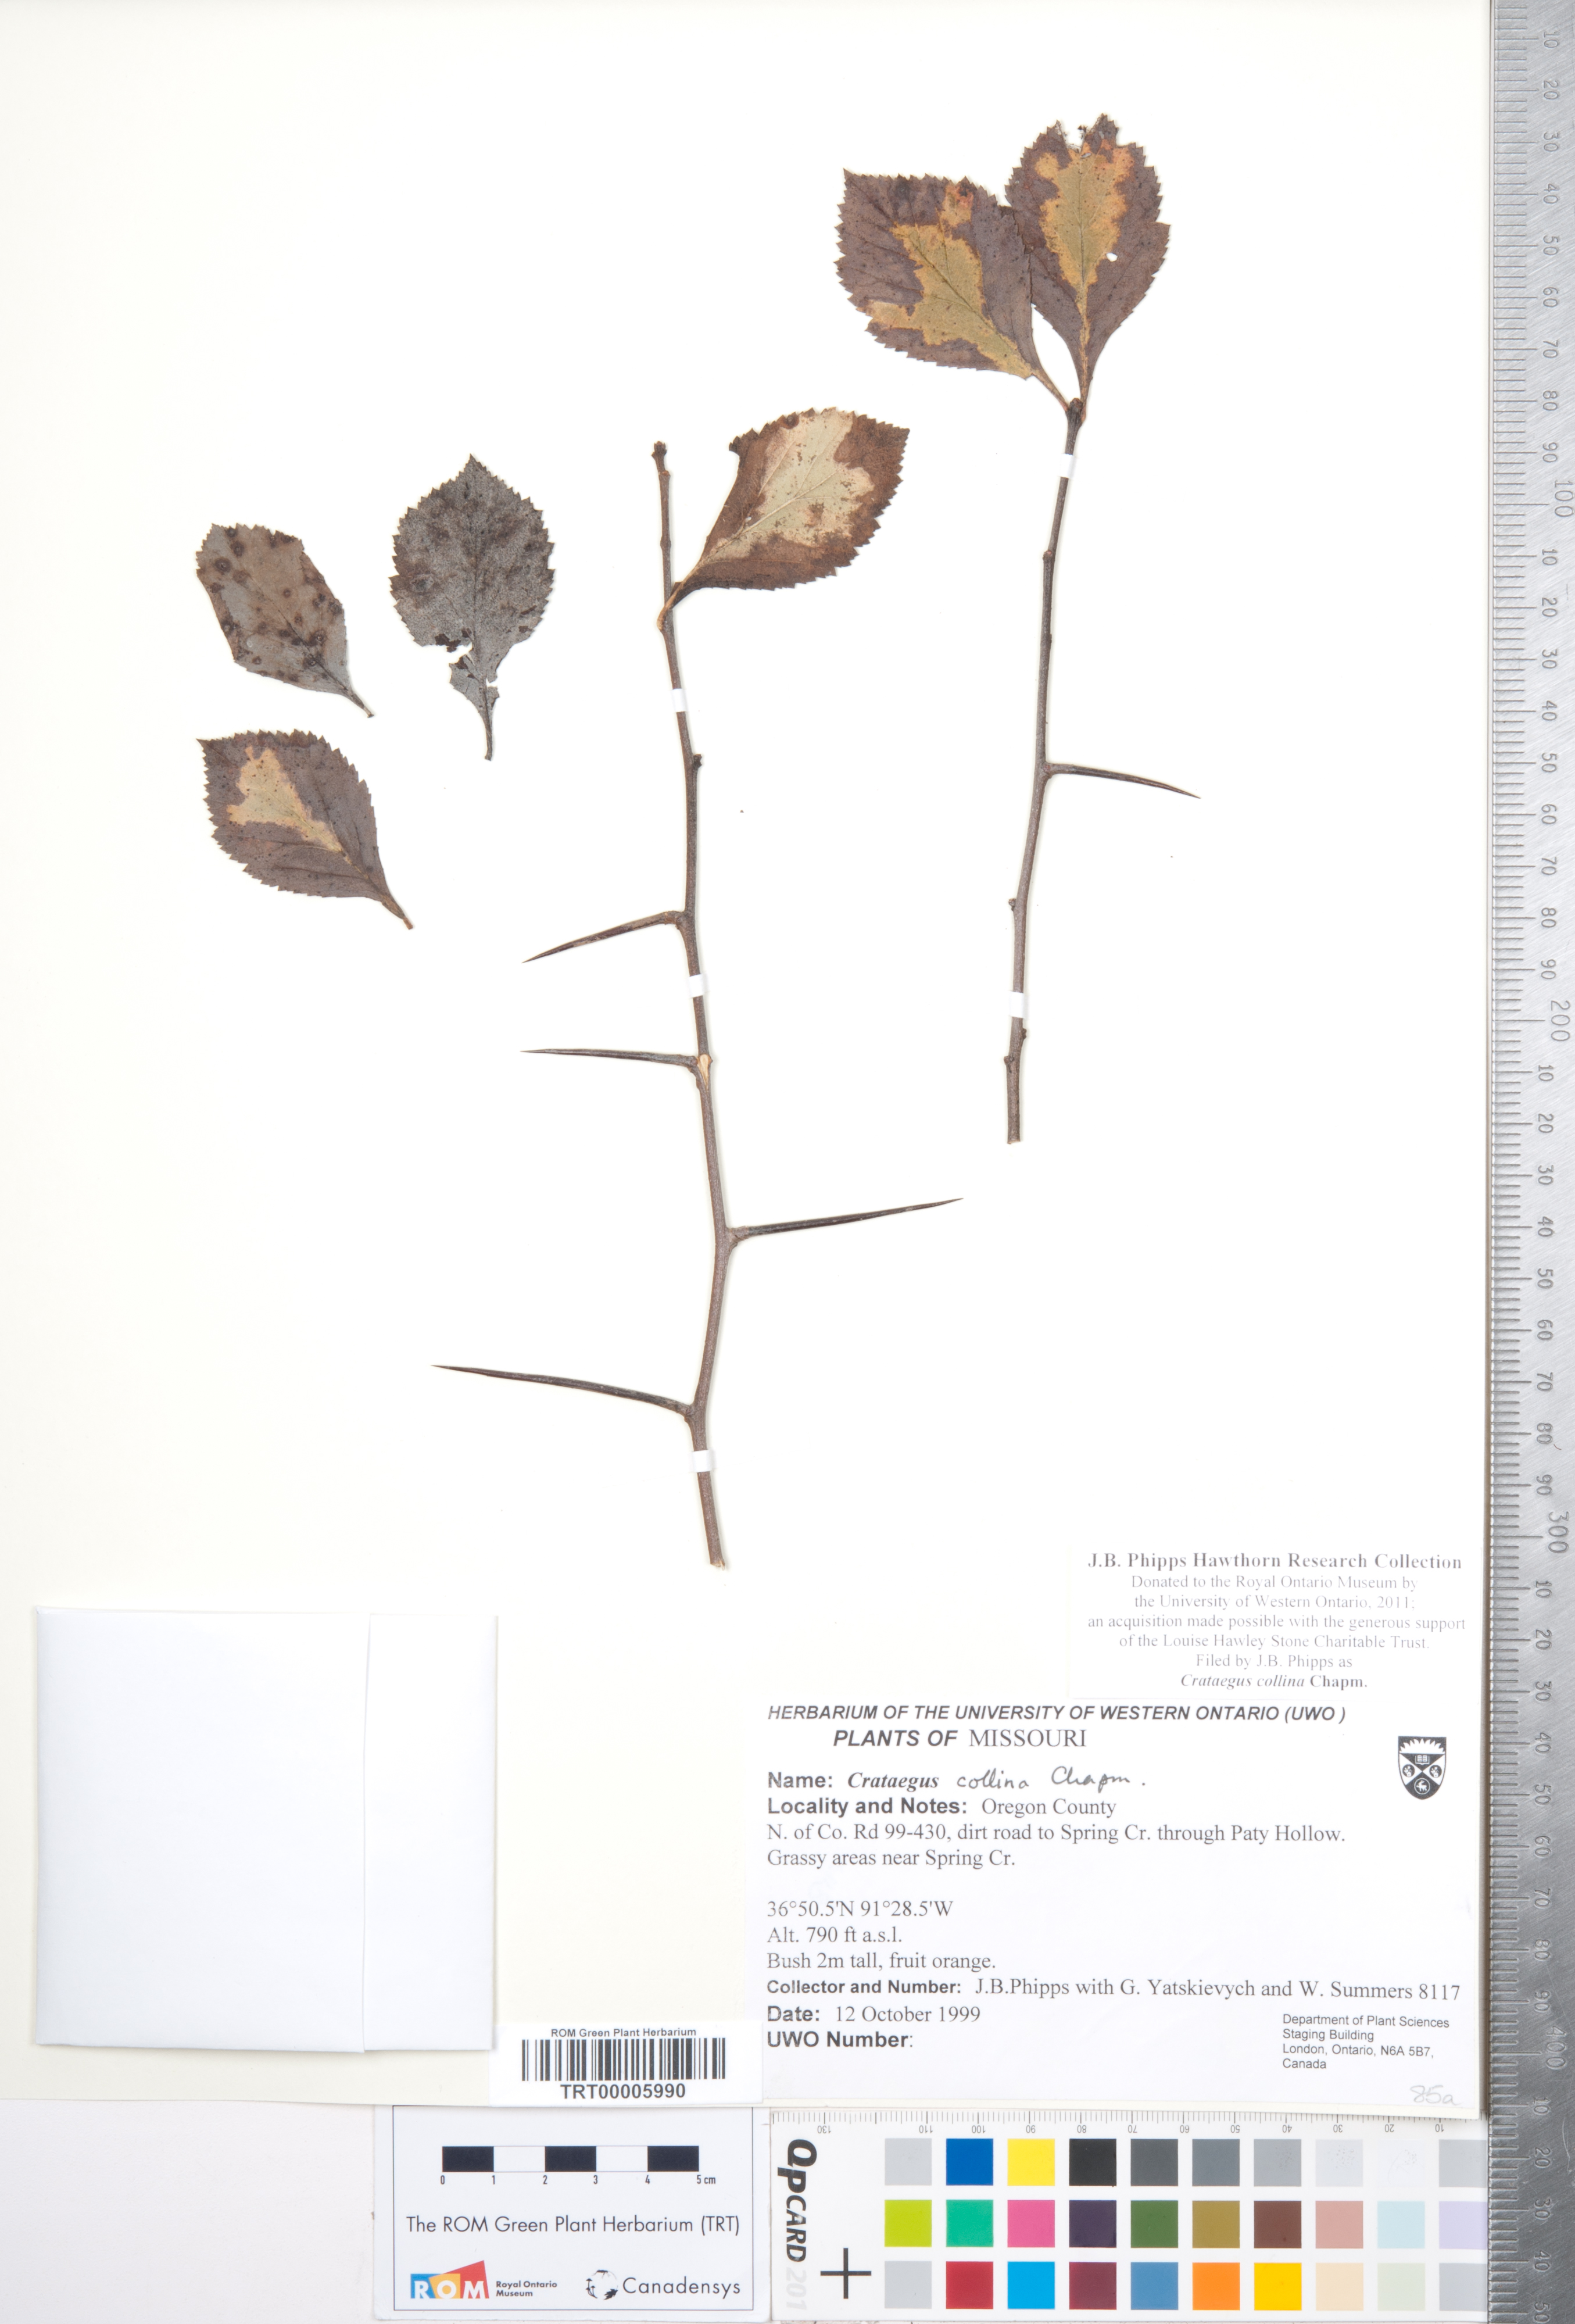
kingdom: Plantae
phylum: Tracheophyta
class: Magnoliopsida
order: Rosales
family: Rosaceae
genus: Crataegus
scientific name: Crataegus collina
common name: Hillside hawthorn
